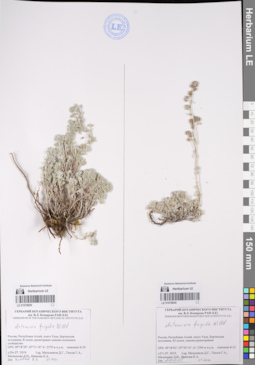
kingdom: Plantae
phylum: Tracheophyta
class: Magnoliopsida
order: Asterales
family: Asteraceae
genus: Artemisia
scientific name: Artemisia frigida
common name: Prairie sagewort
